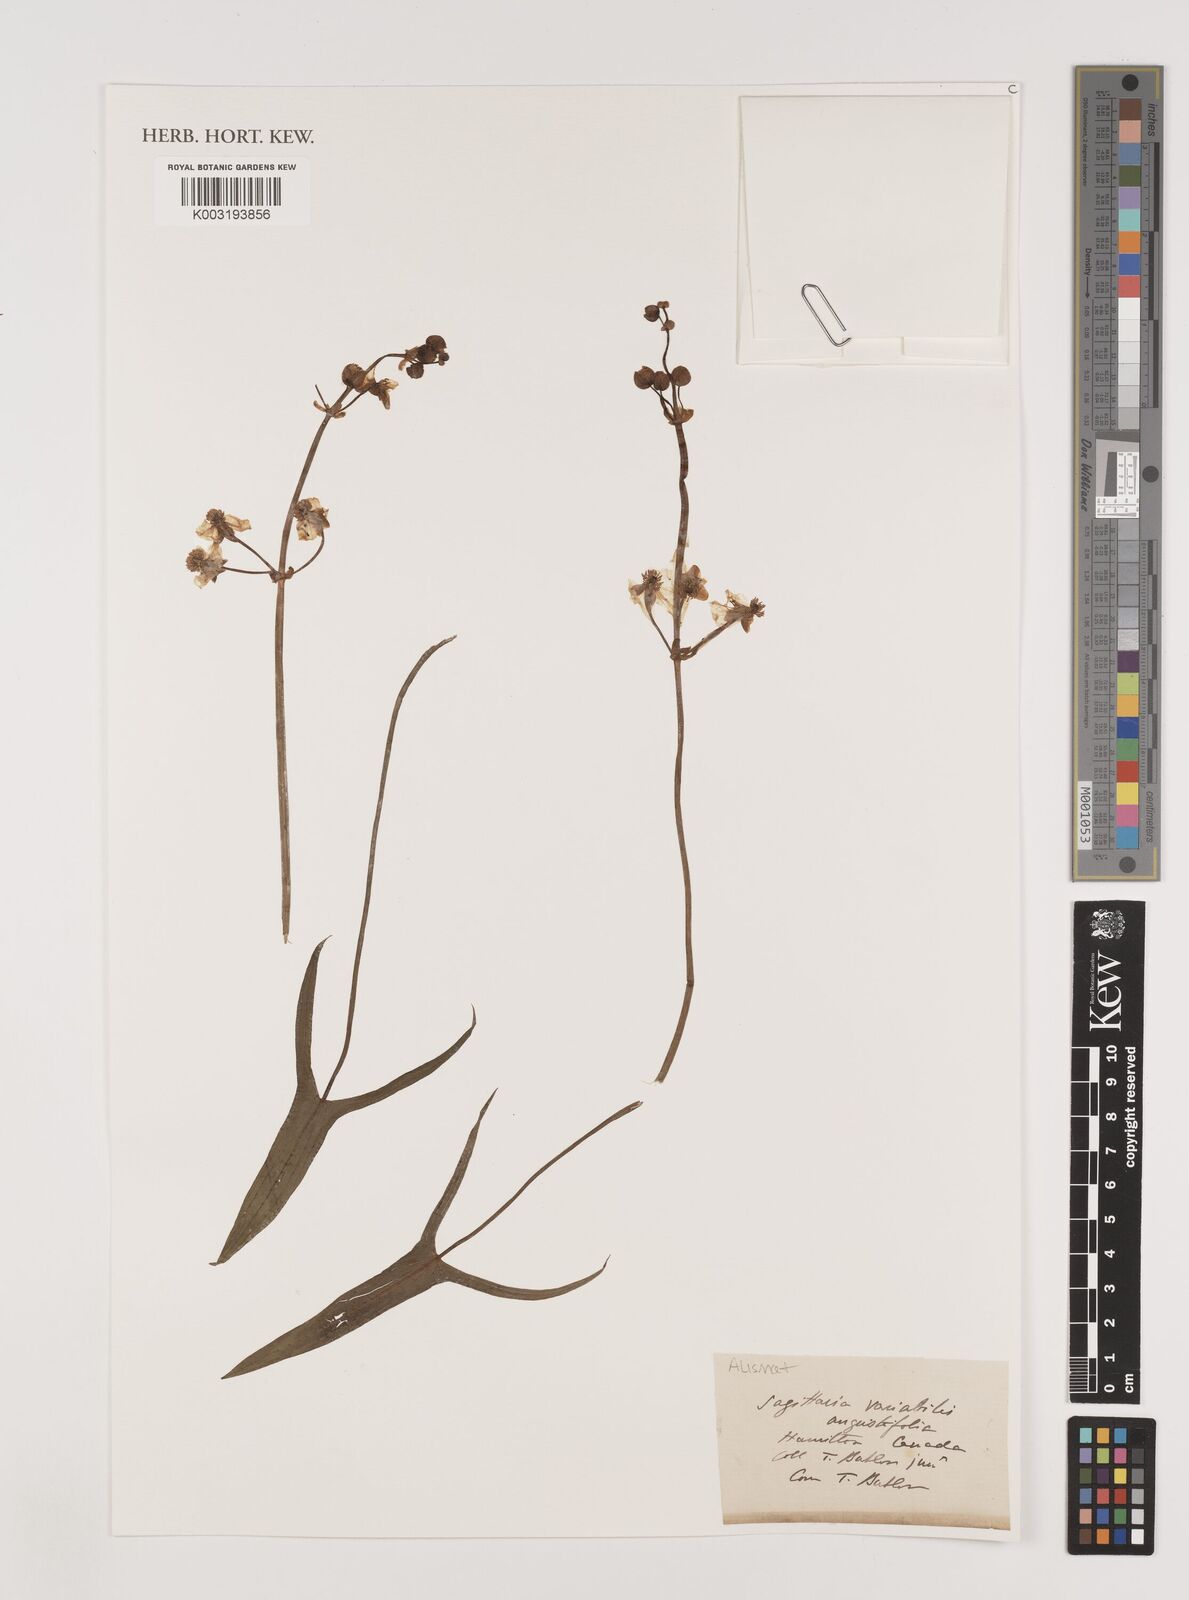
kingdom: Plantae
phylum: Tracheophyta
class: Liliopsida
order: Alismatales
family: Alismataceae
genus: Sagittaria
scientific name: Sagittaria latifolia
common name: Duck-potato
